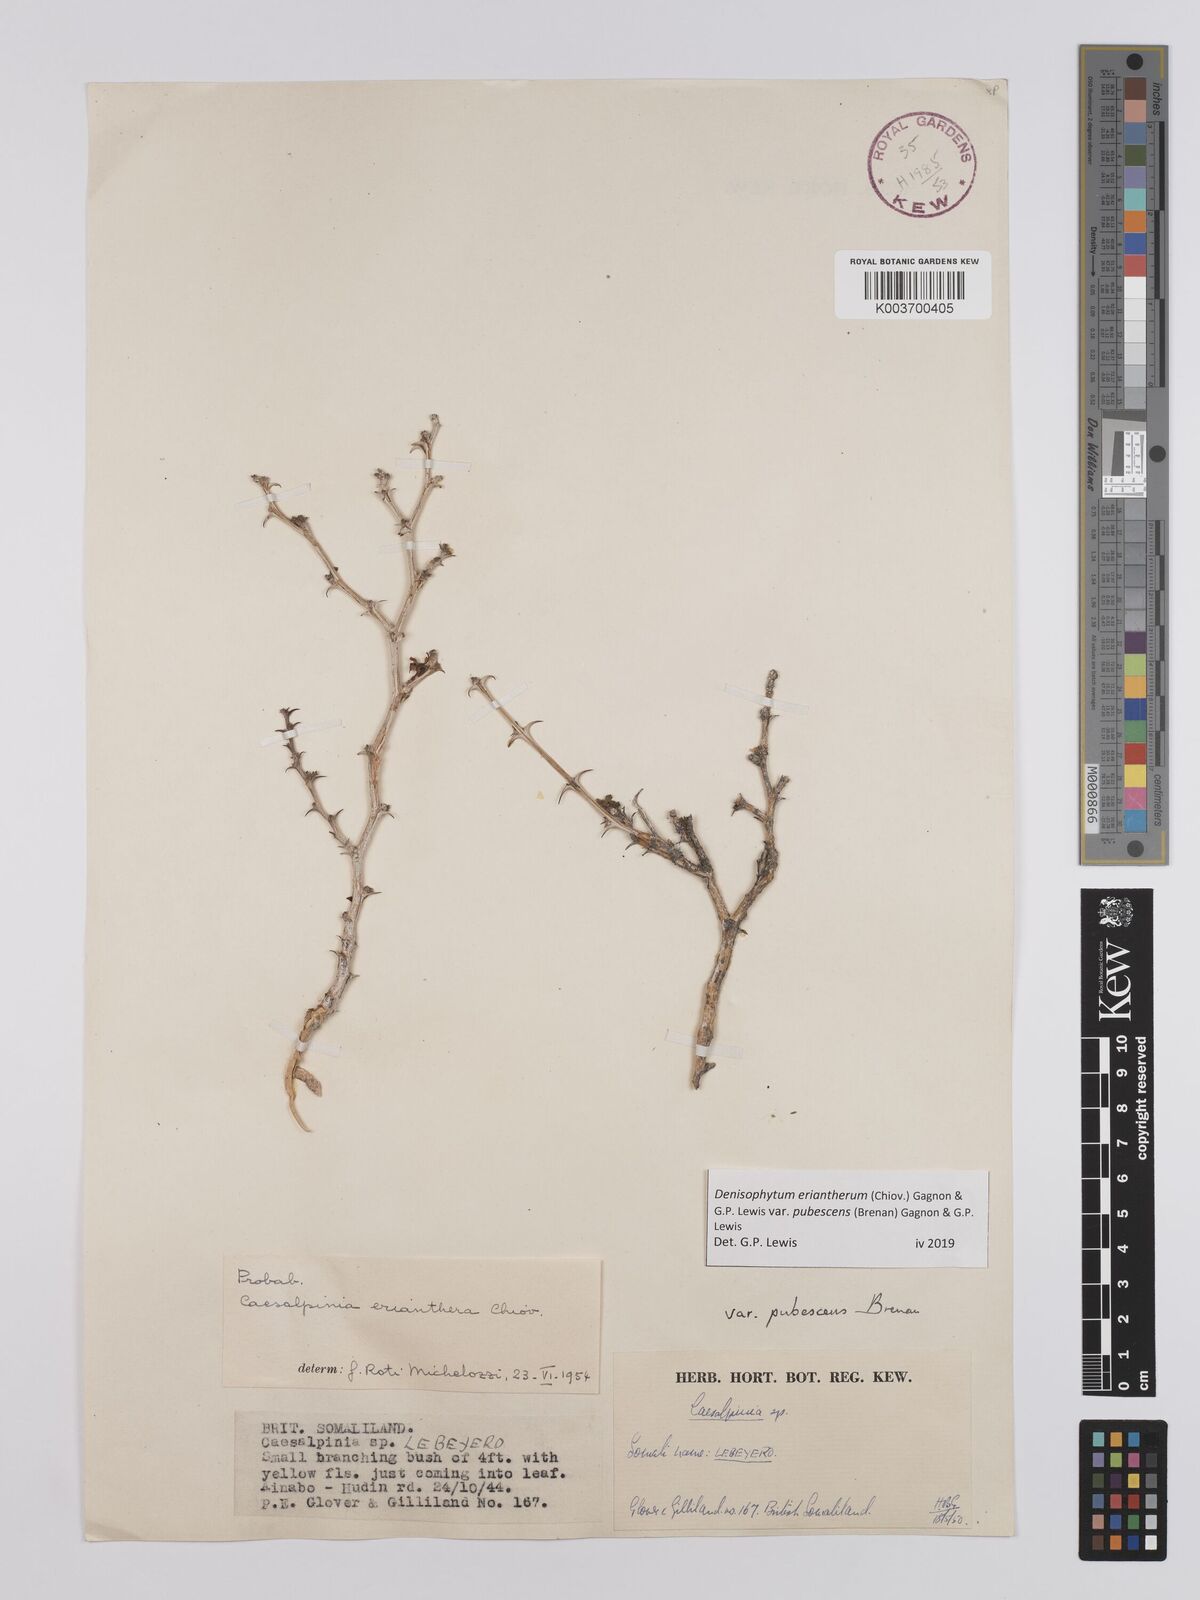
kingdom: Plantae
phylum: Tracheophyta
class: Magnoliopsida
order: Fabales
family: Fabaceae
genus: Denisophytum
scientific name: Denisophytum eriantherum
